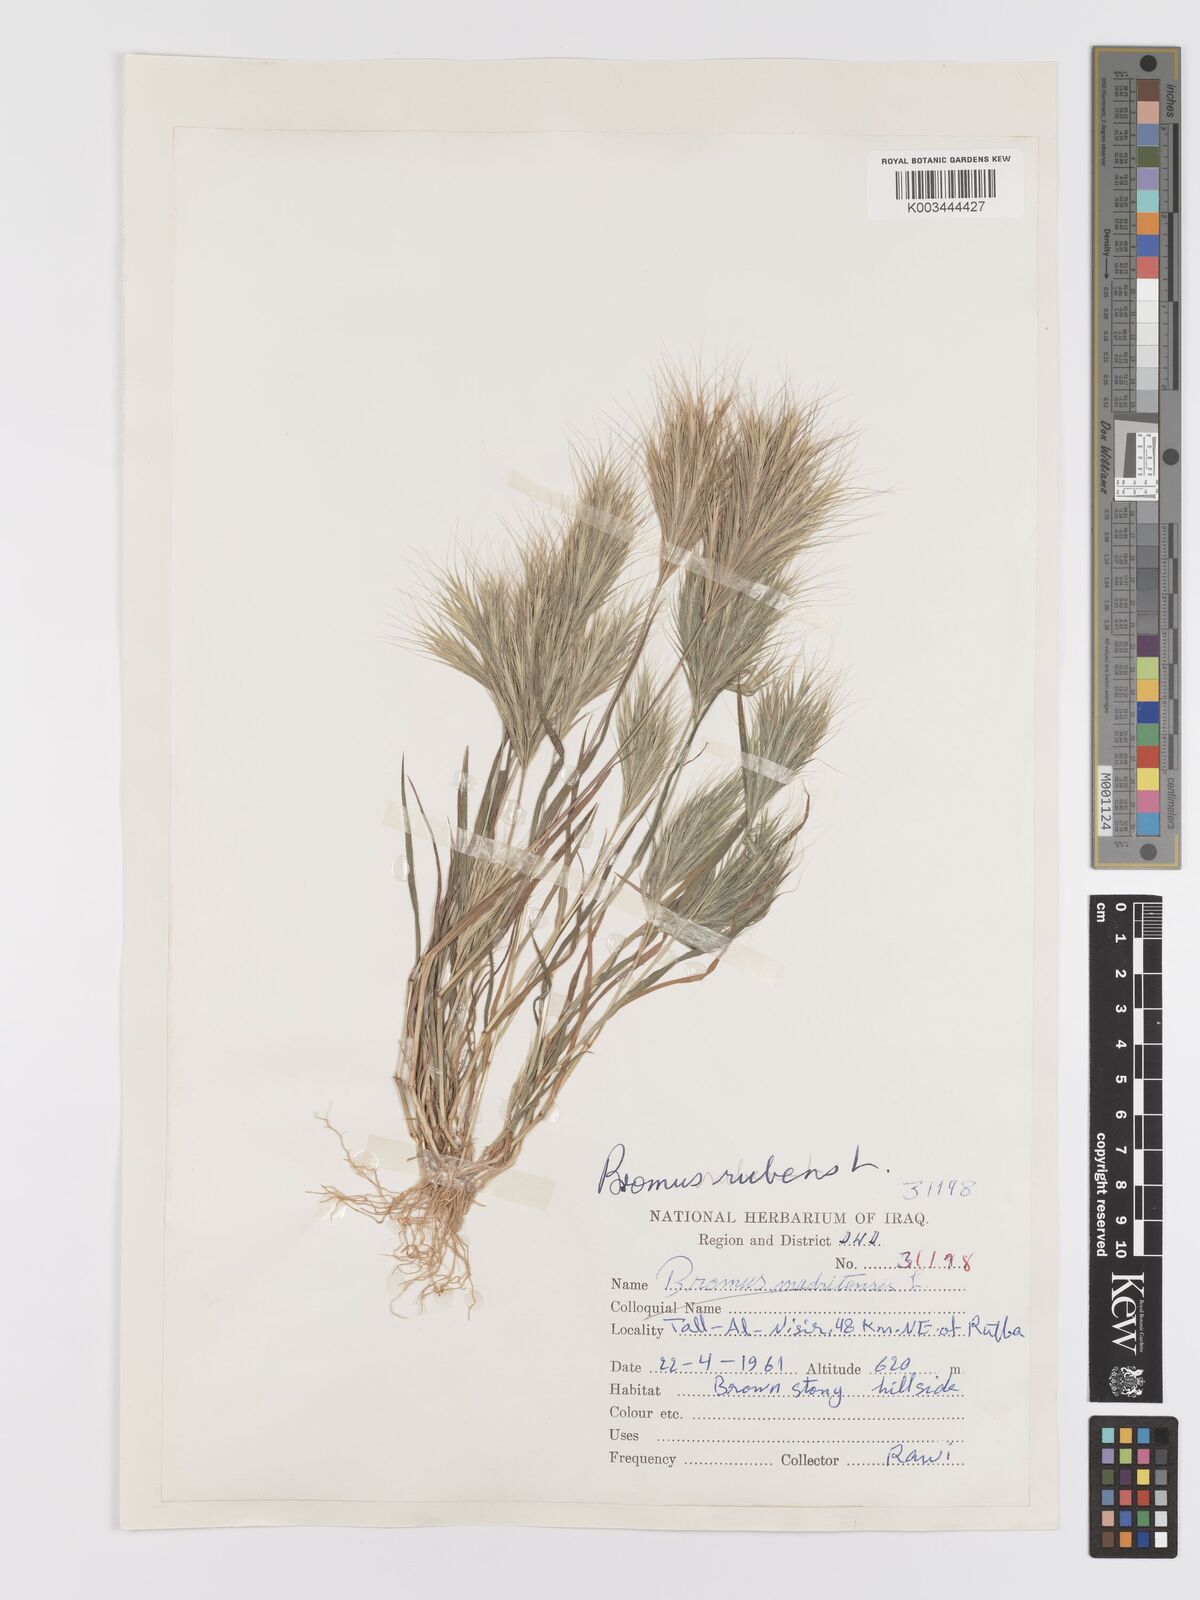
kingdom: Plantae
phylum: Tracheophyta
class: Liliopsida
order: Poales
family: Poaceae
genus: Bromus
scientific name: Bromus rubens
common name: Red brome
